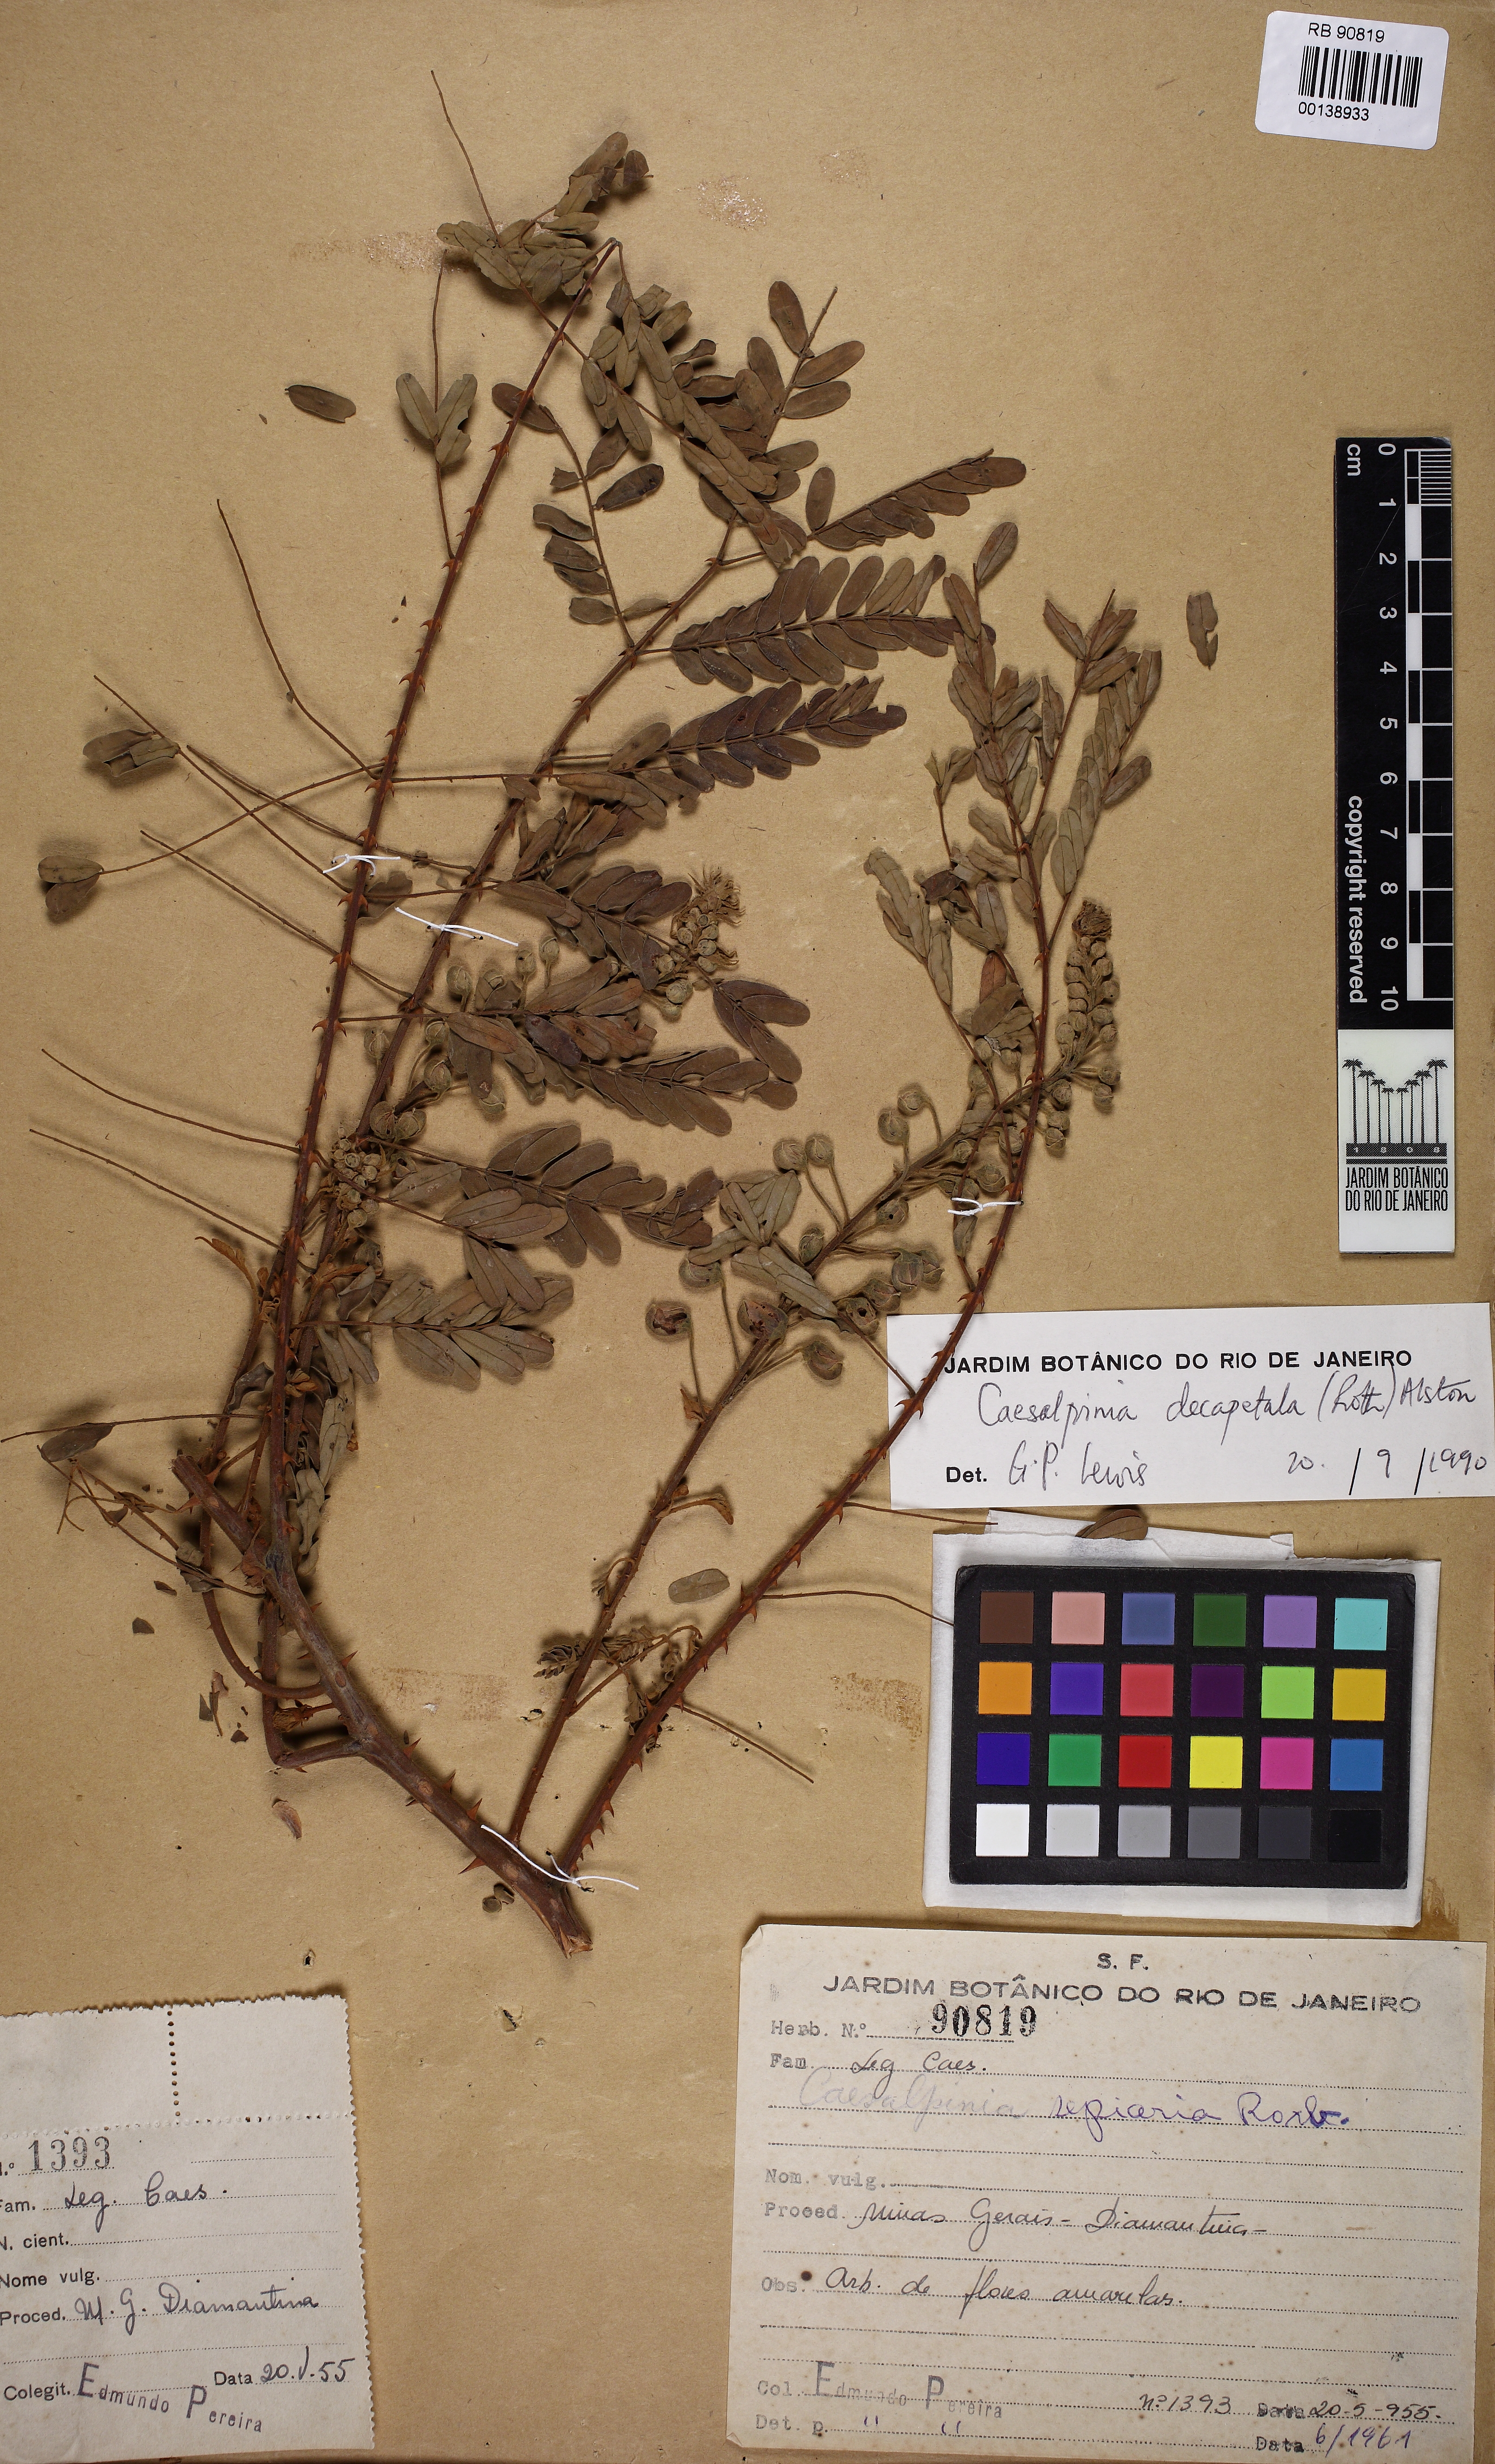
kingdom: Plantae
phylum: Tracheophyta
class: Magnoliopsida
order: Fabales
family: Fabaceae
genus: Biancaea
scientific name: Biancaea decapetala
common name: Cat's claw
